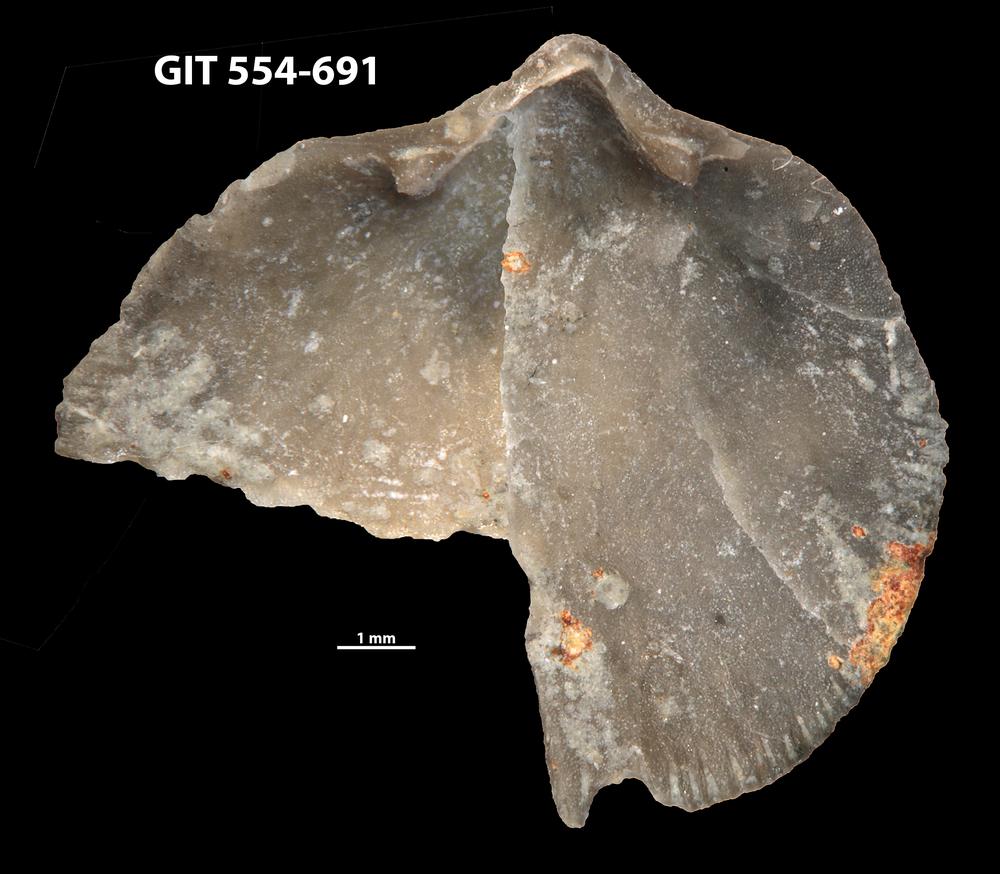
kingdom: Animalia
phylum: Brachiopoda
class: Rhynchonellata
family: Rhipidomellidae
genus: Mendacella
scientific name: Mendacella Orthis hybrida
